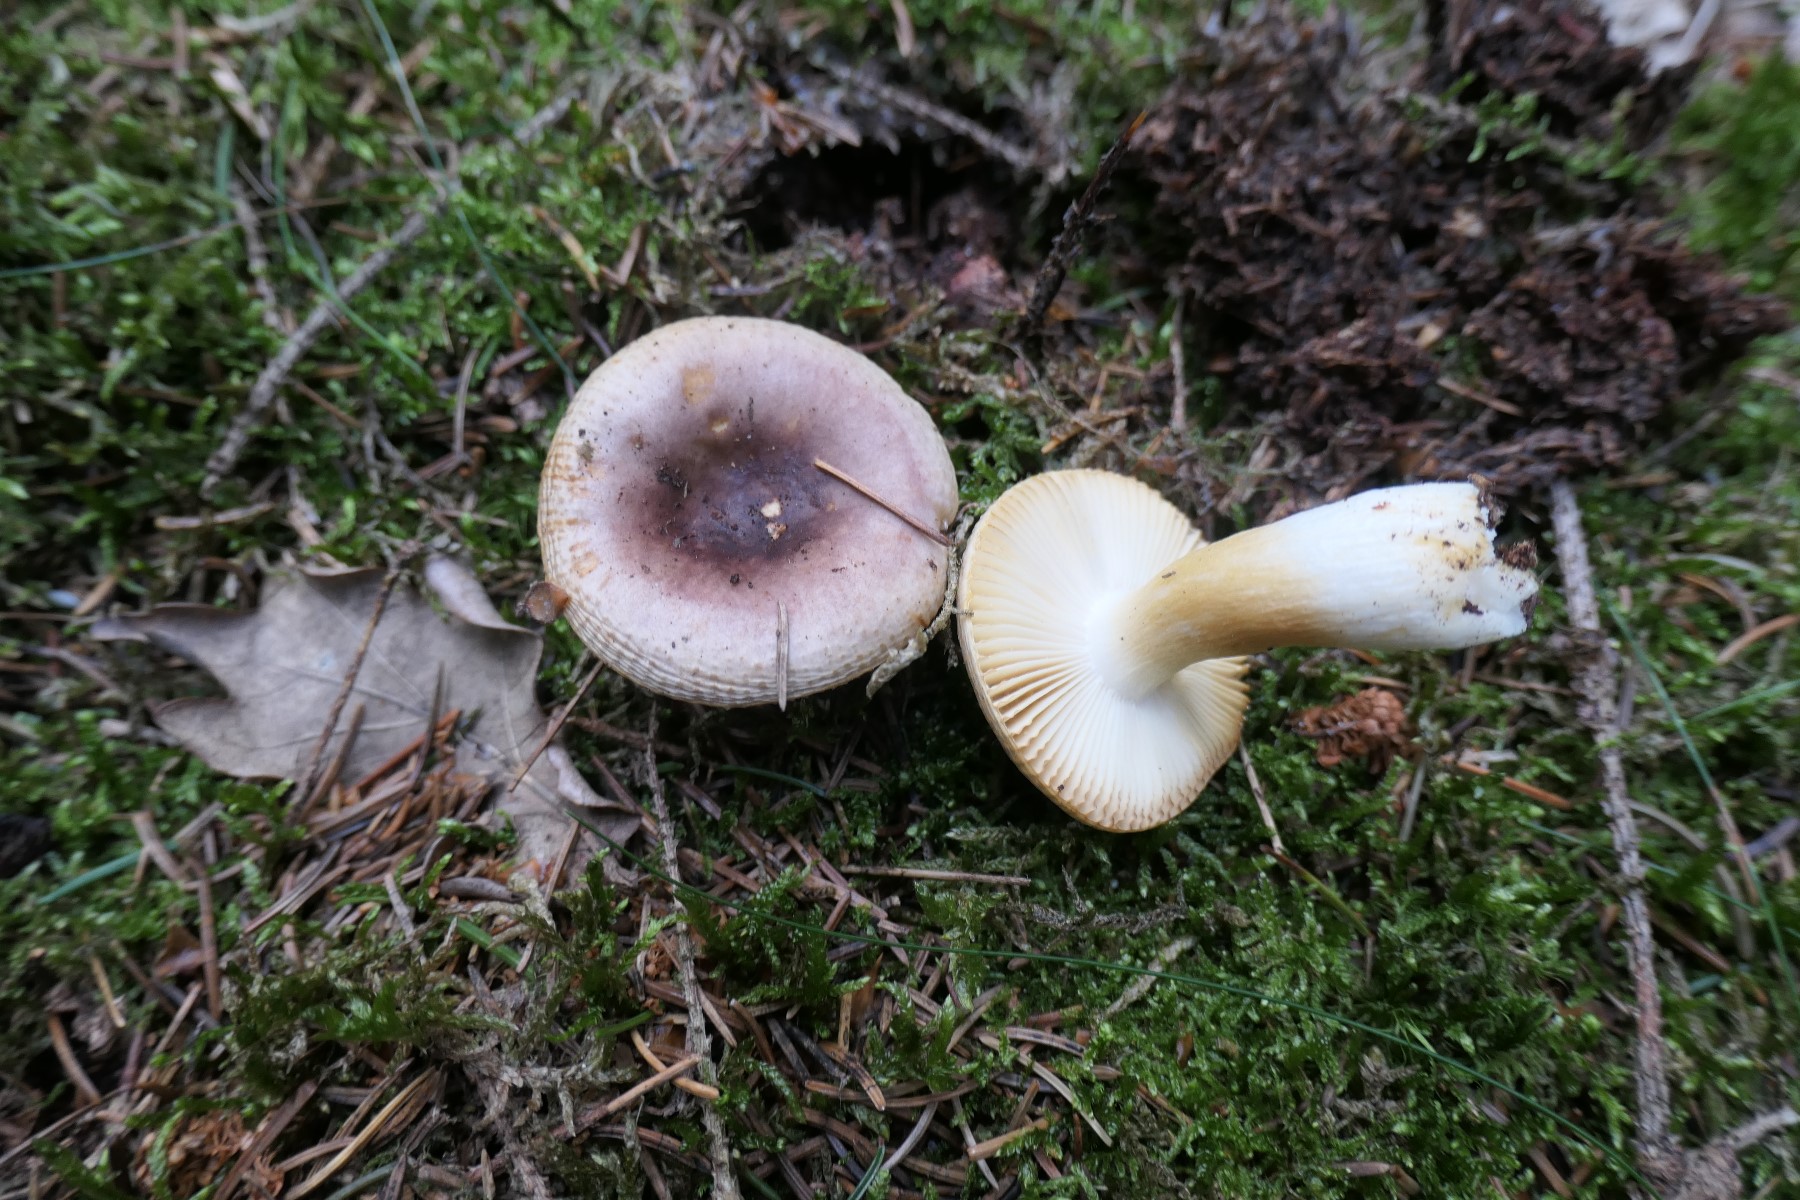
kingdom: Fungi
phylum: Basidiomycota
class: Agaricomycetes
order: Russulales
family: Russulaceae
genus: Russula
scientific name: Russula puellaris
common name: gulstokket skørhat
